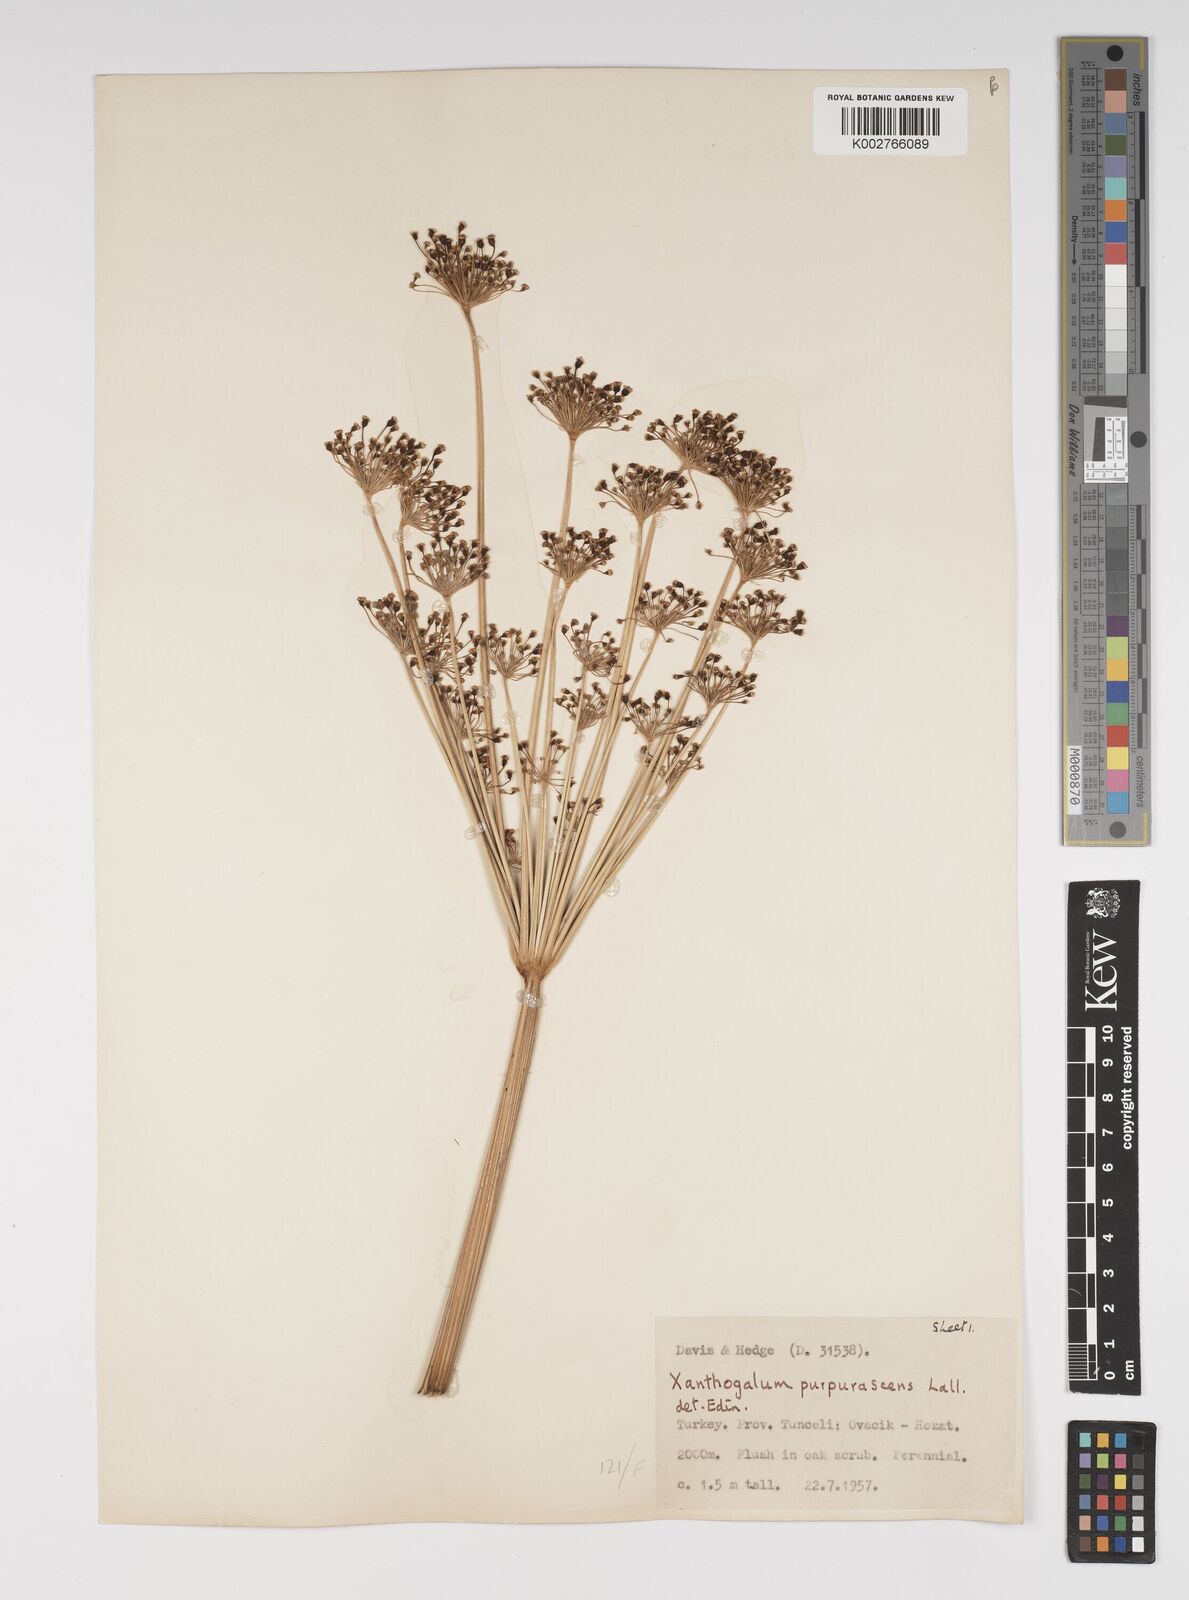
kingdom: Plantae
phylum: Tracheophyta
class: Magnoliopsida
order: Apiales
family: Apiaceae
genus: Xanthogalum
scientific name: Xanthogalum purpurascens
